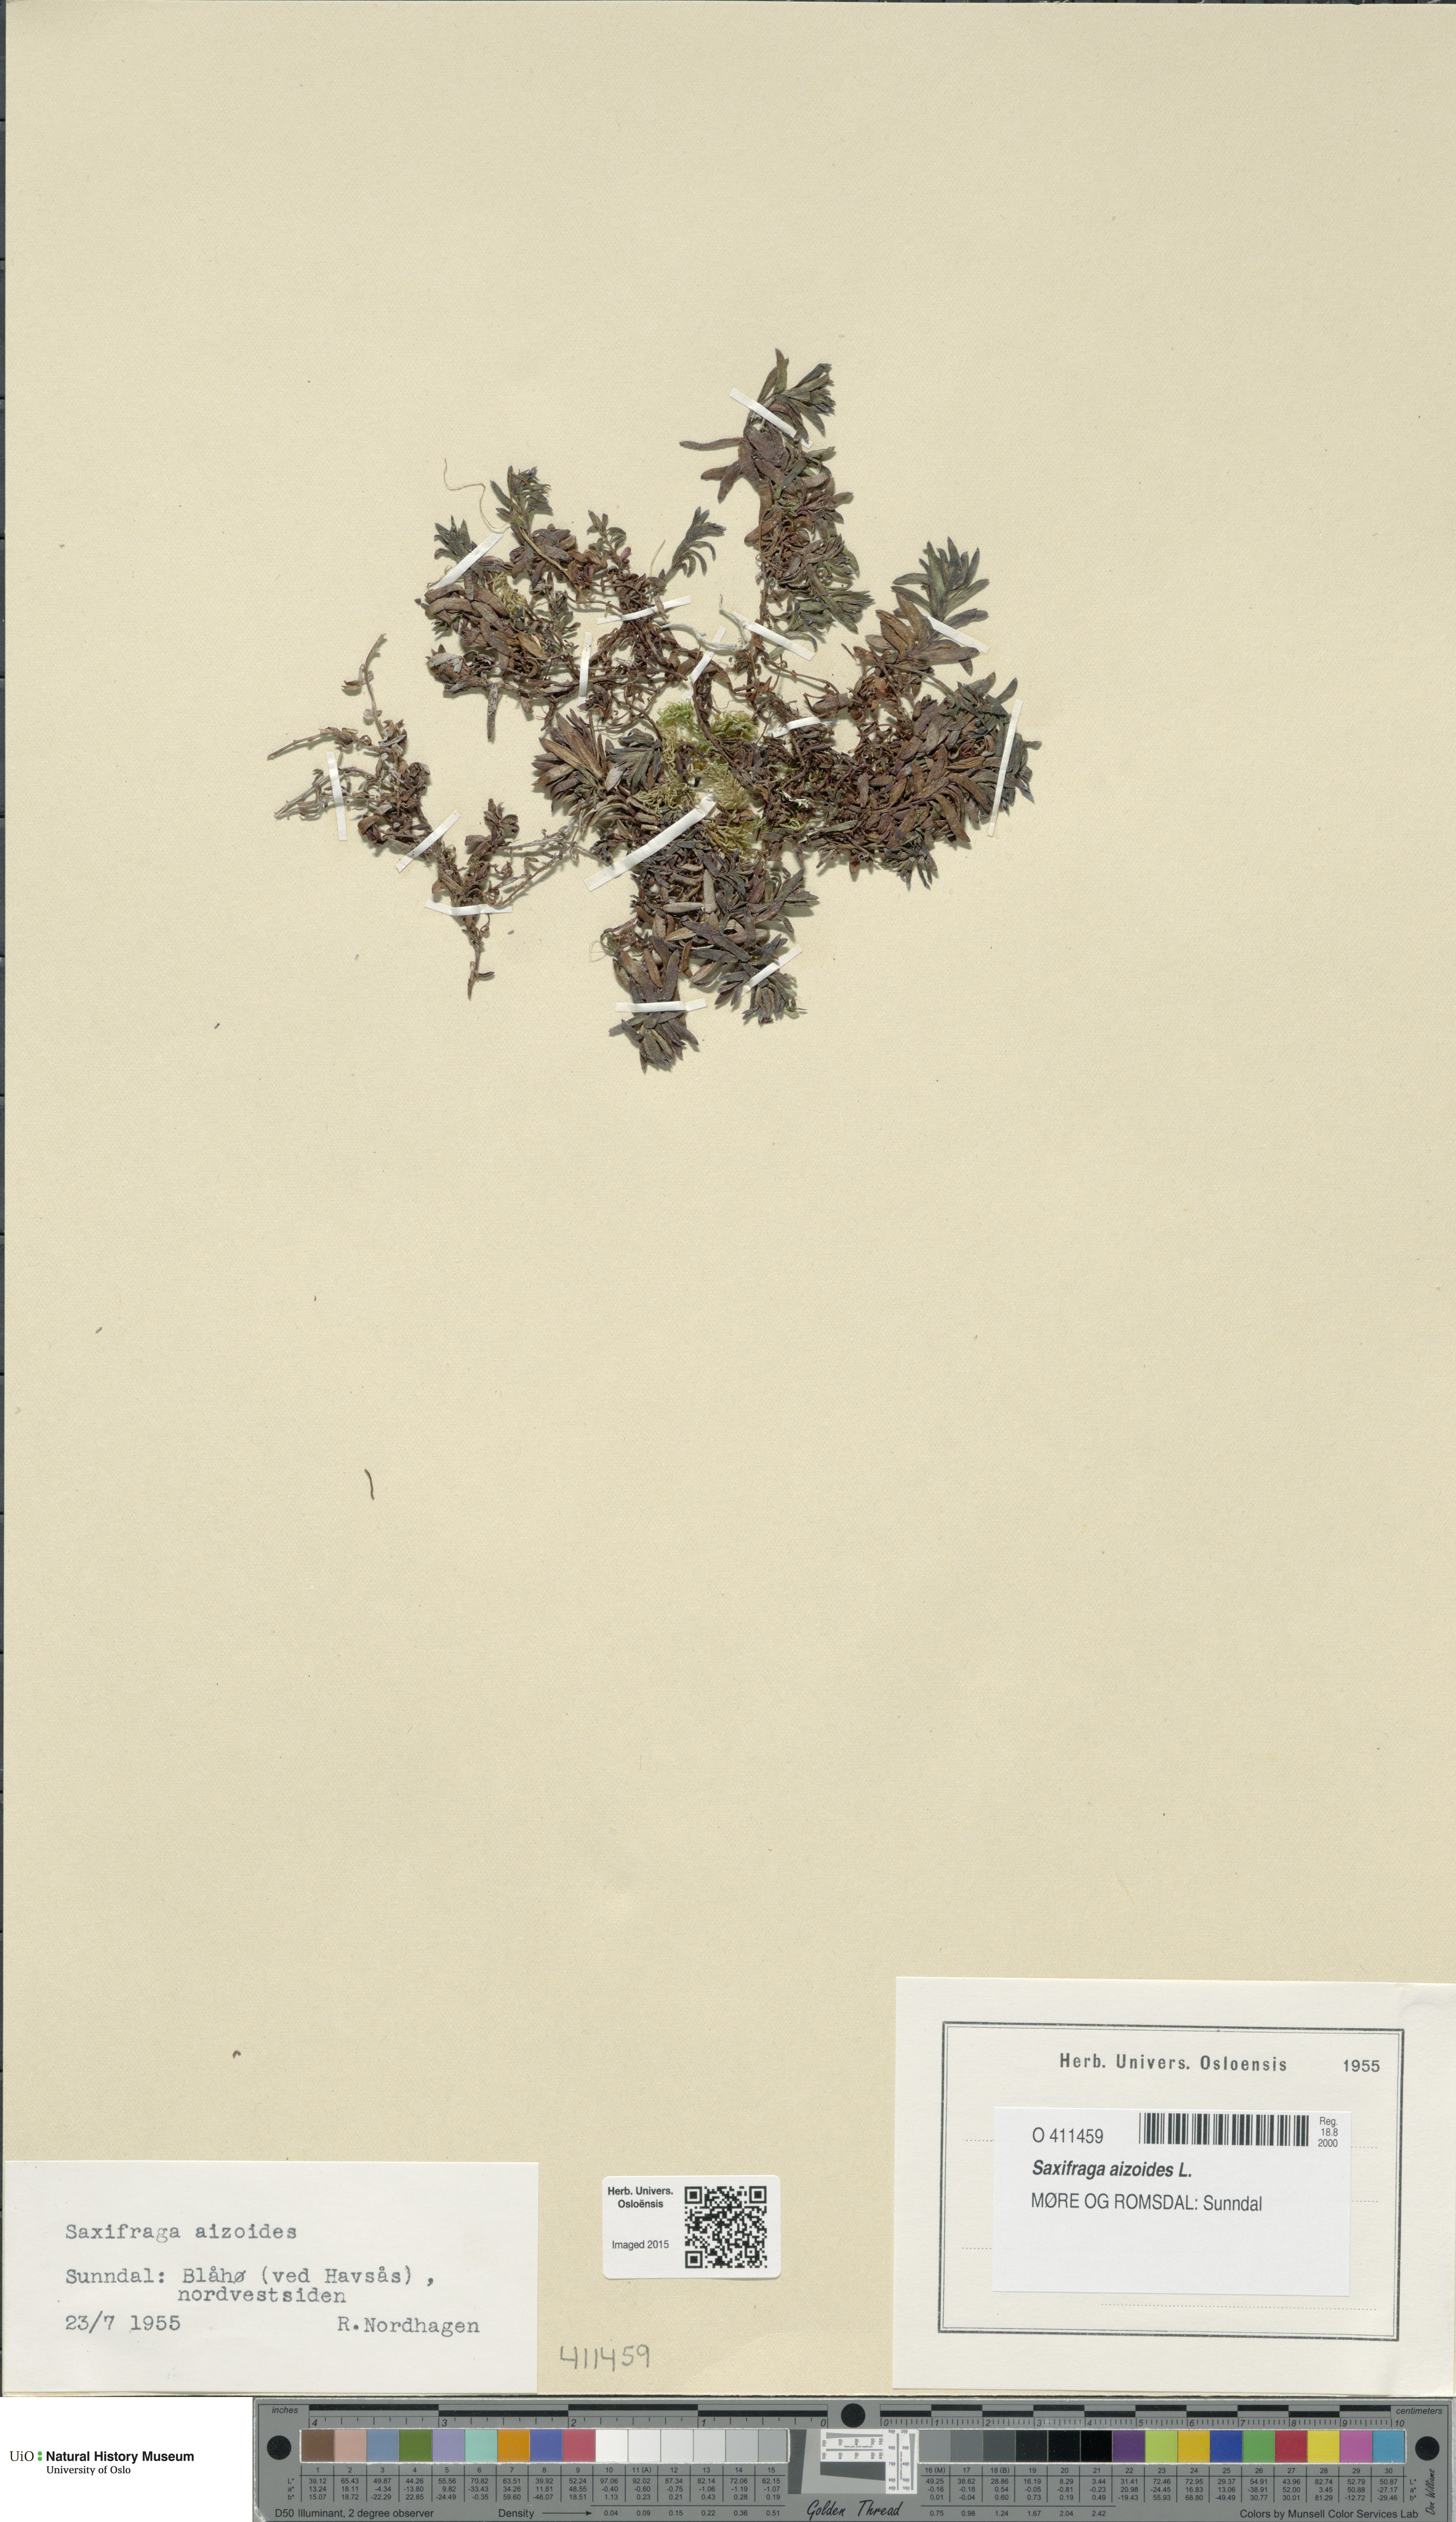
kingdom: Plantae
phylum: Tracheophyta
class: Magnoliopsida
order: Saxifragales
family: Saxifragaceae
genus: Saxifraga
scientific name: Saxifraga aizoides
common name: Yellow mountain saxifrage
